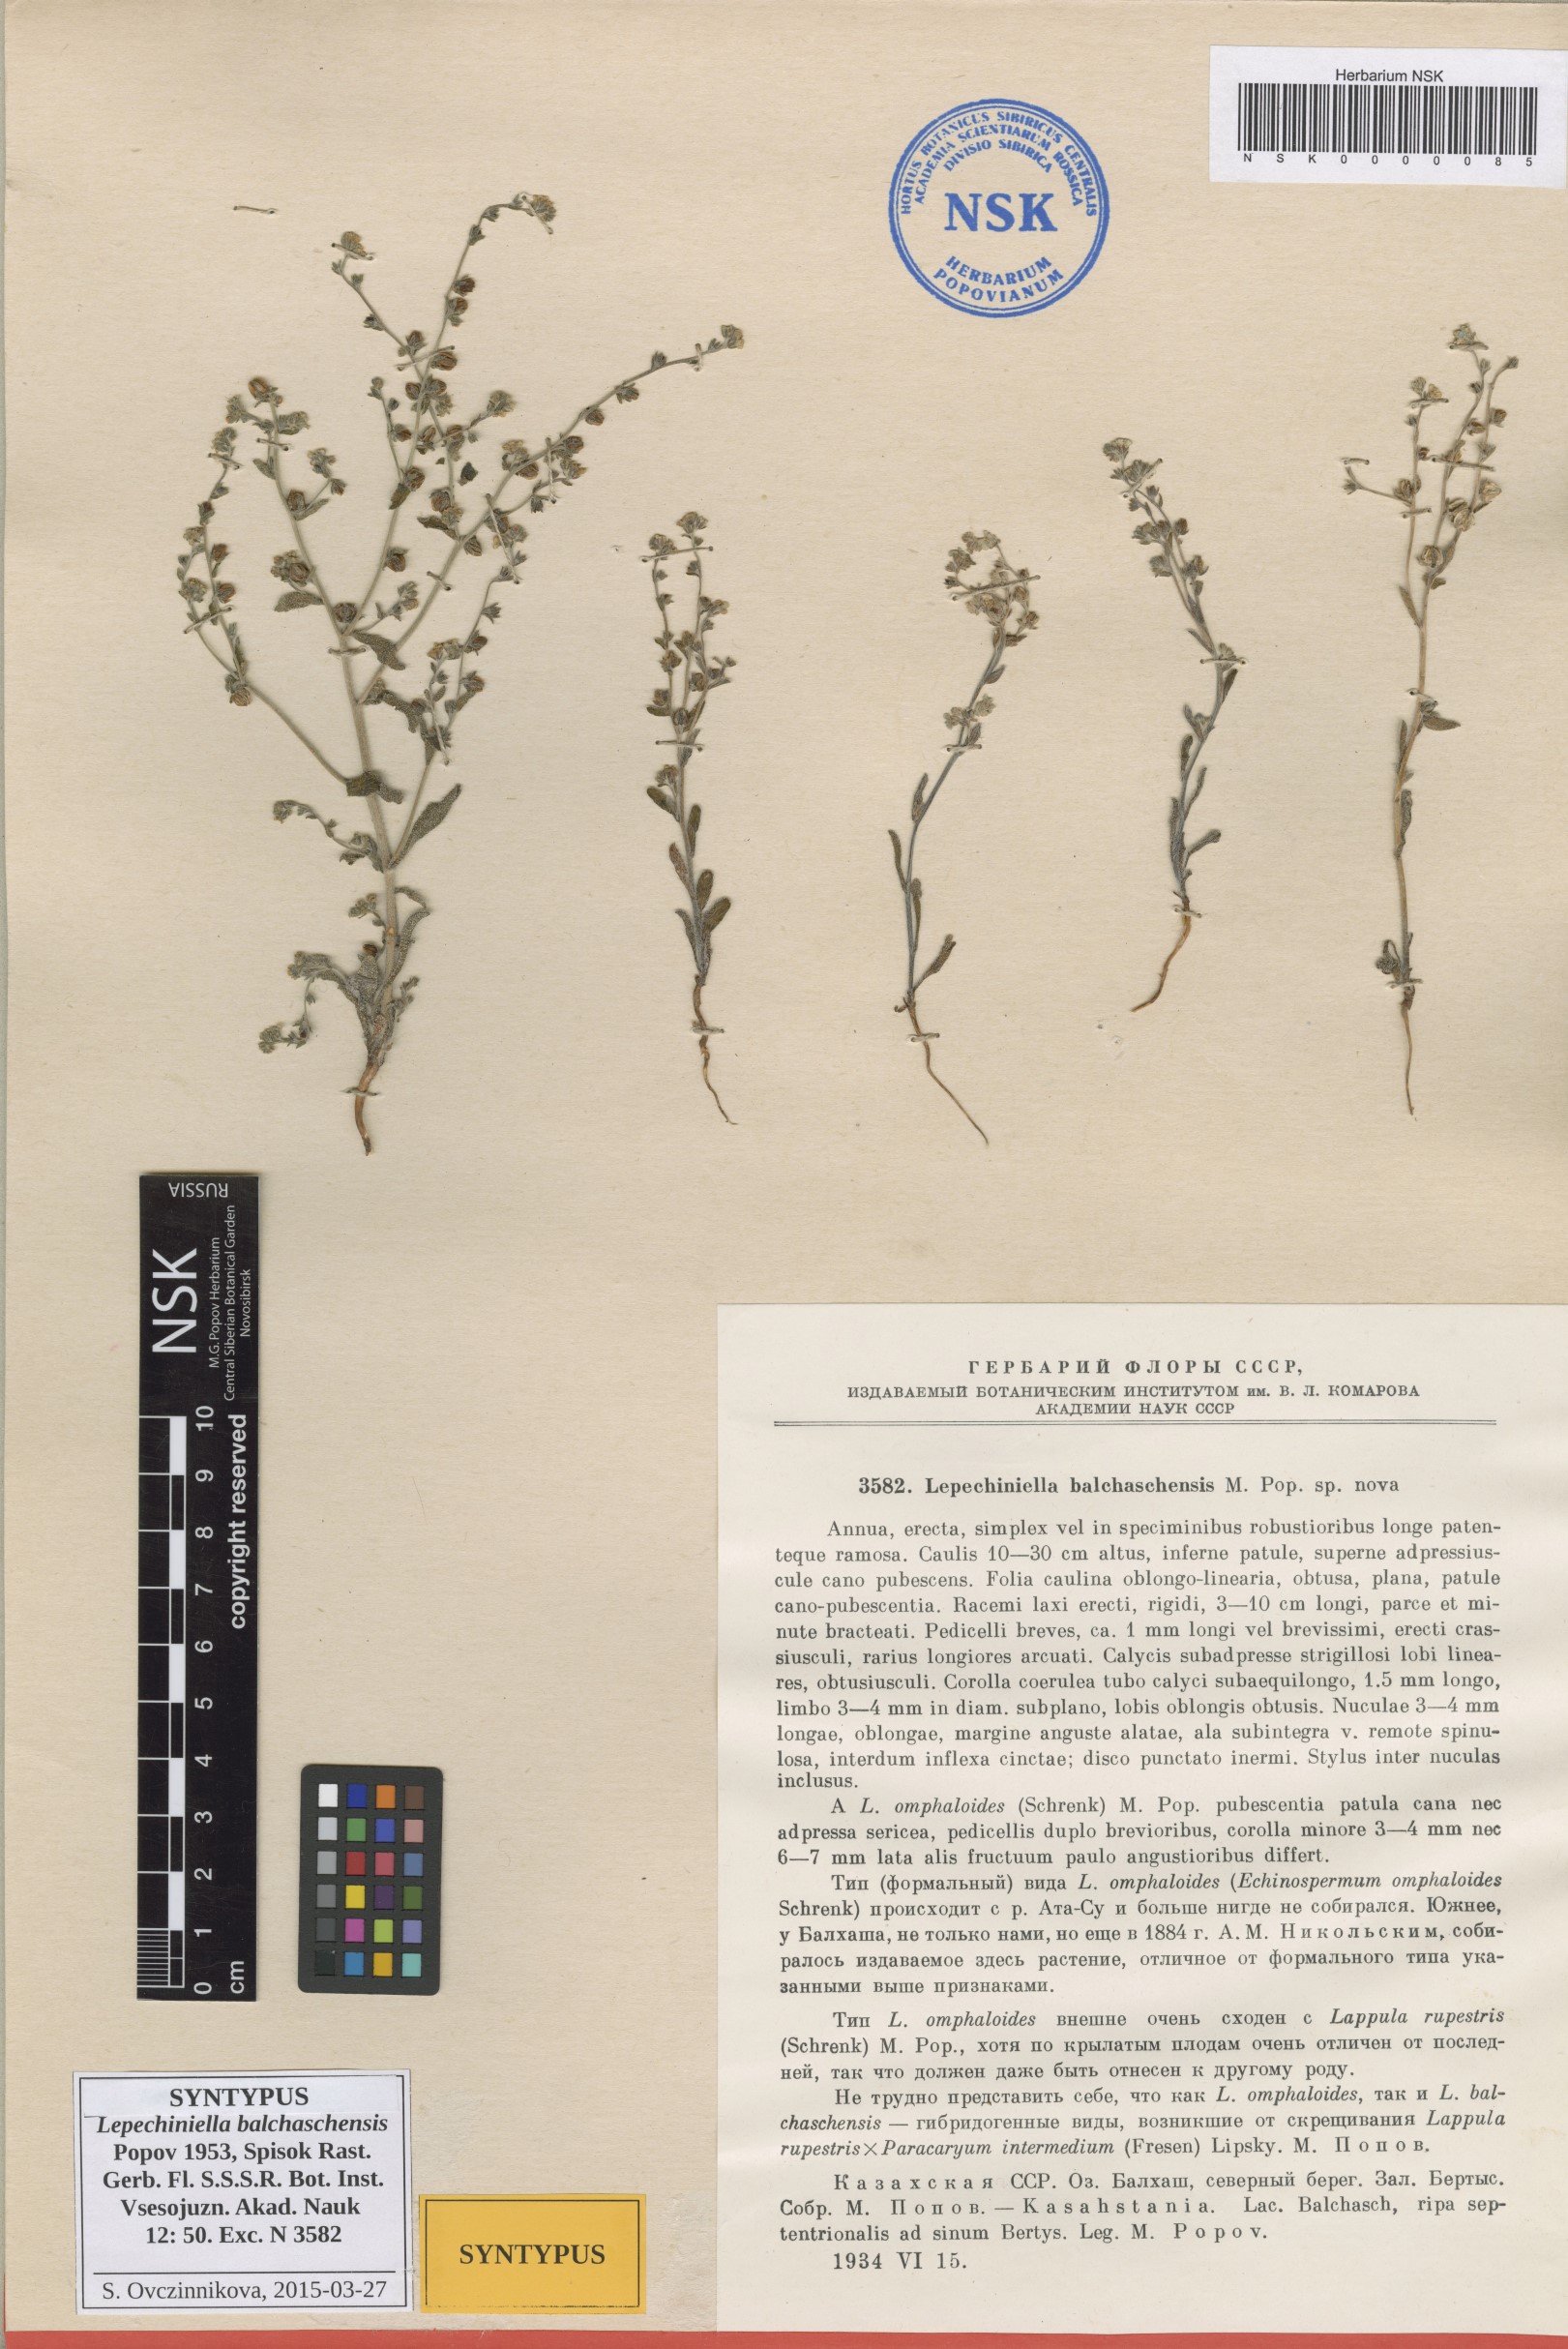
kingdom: Plantae
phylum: Tracheophyta
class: Magnoliopsida
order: Boraginales
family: Boraginaceae
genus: Lepechiniella
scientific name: Lepechiniella lasiocarpa
